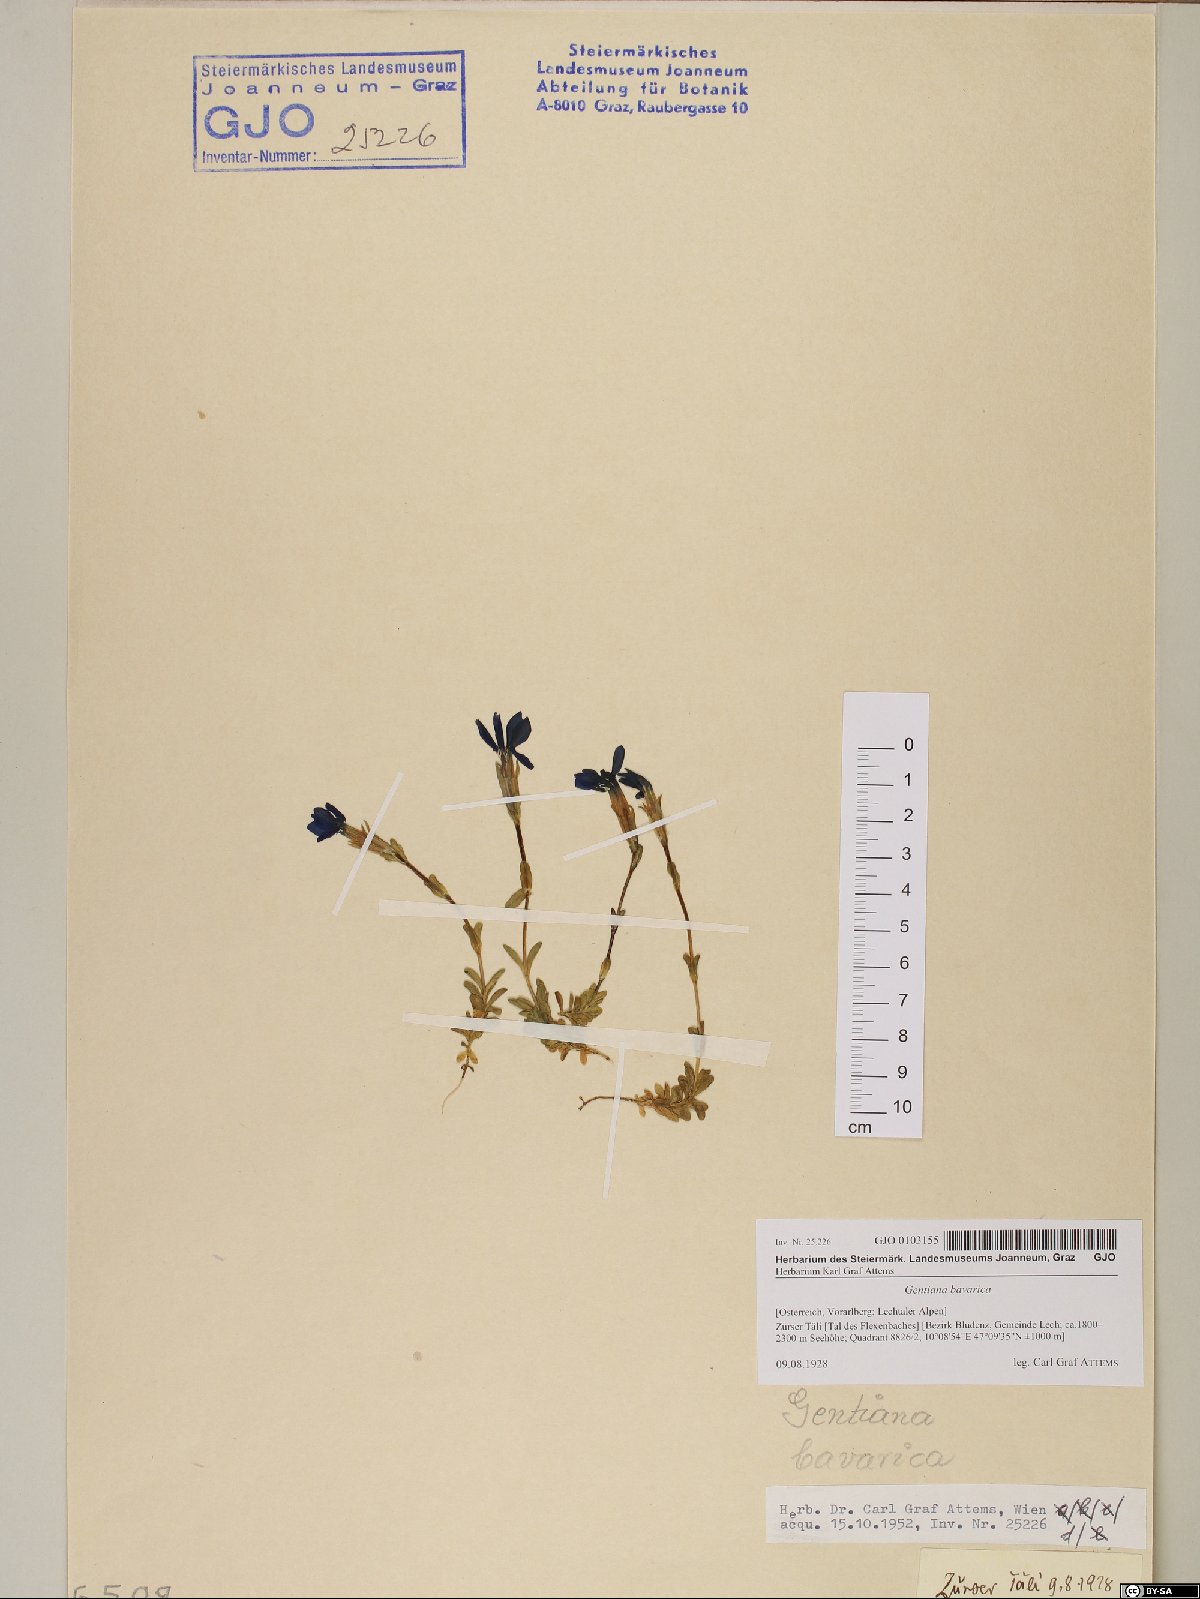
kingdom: Plantae
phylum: Tracheophyta
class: Magnoliopsida
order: Gentianales
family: Gentianaceae
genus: Gentiana
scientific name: Gentiana bavarica
